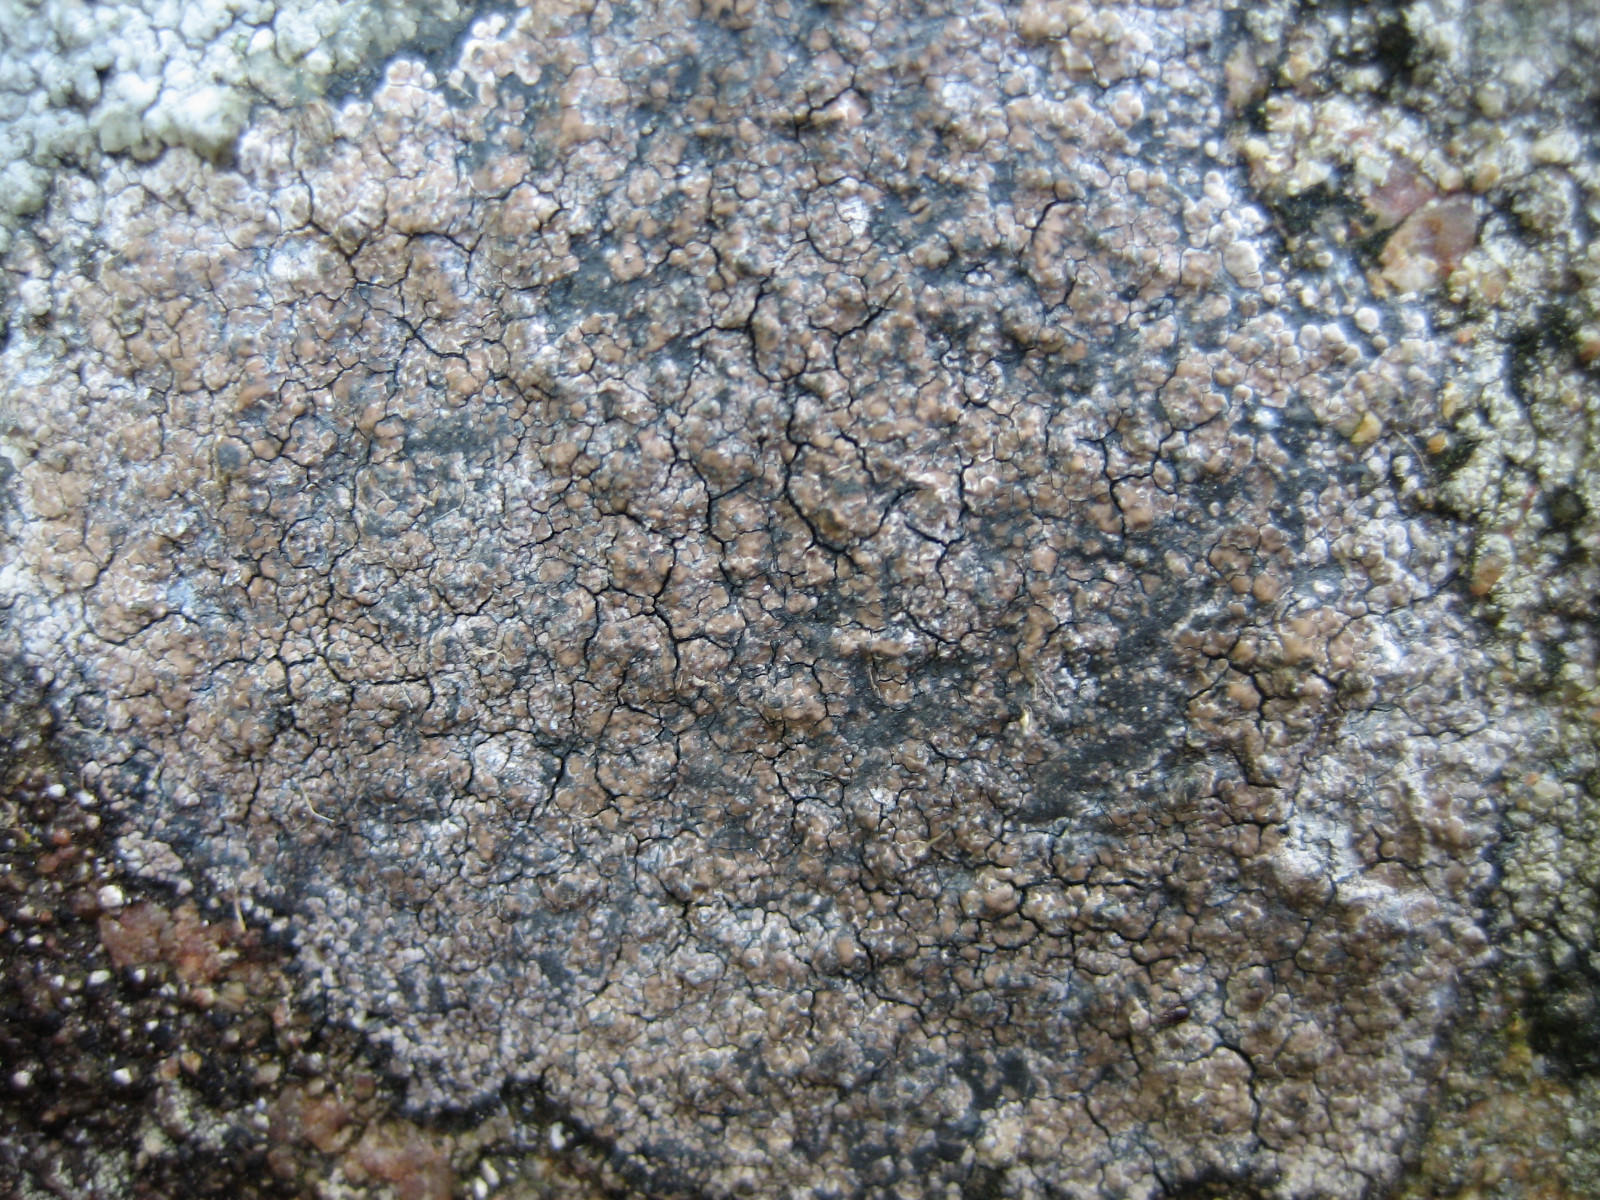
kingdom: Fungi
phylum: Ascomycota
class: Lecanoromycetes
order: Lecideales
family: Lecideaceae
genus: Lecidea
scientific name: Lecidea fuscoatra
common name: rudret skivelav
